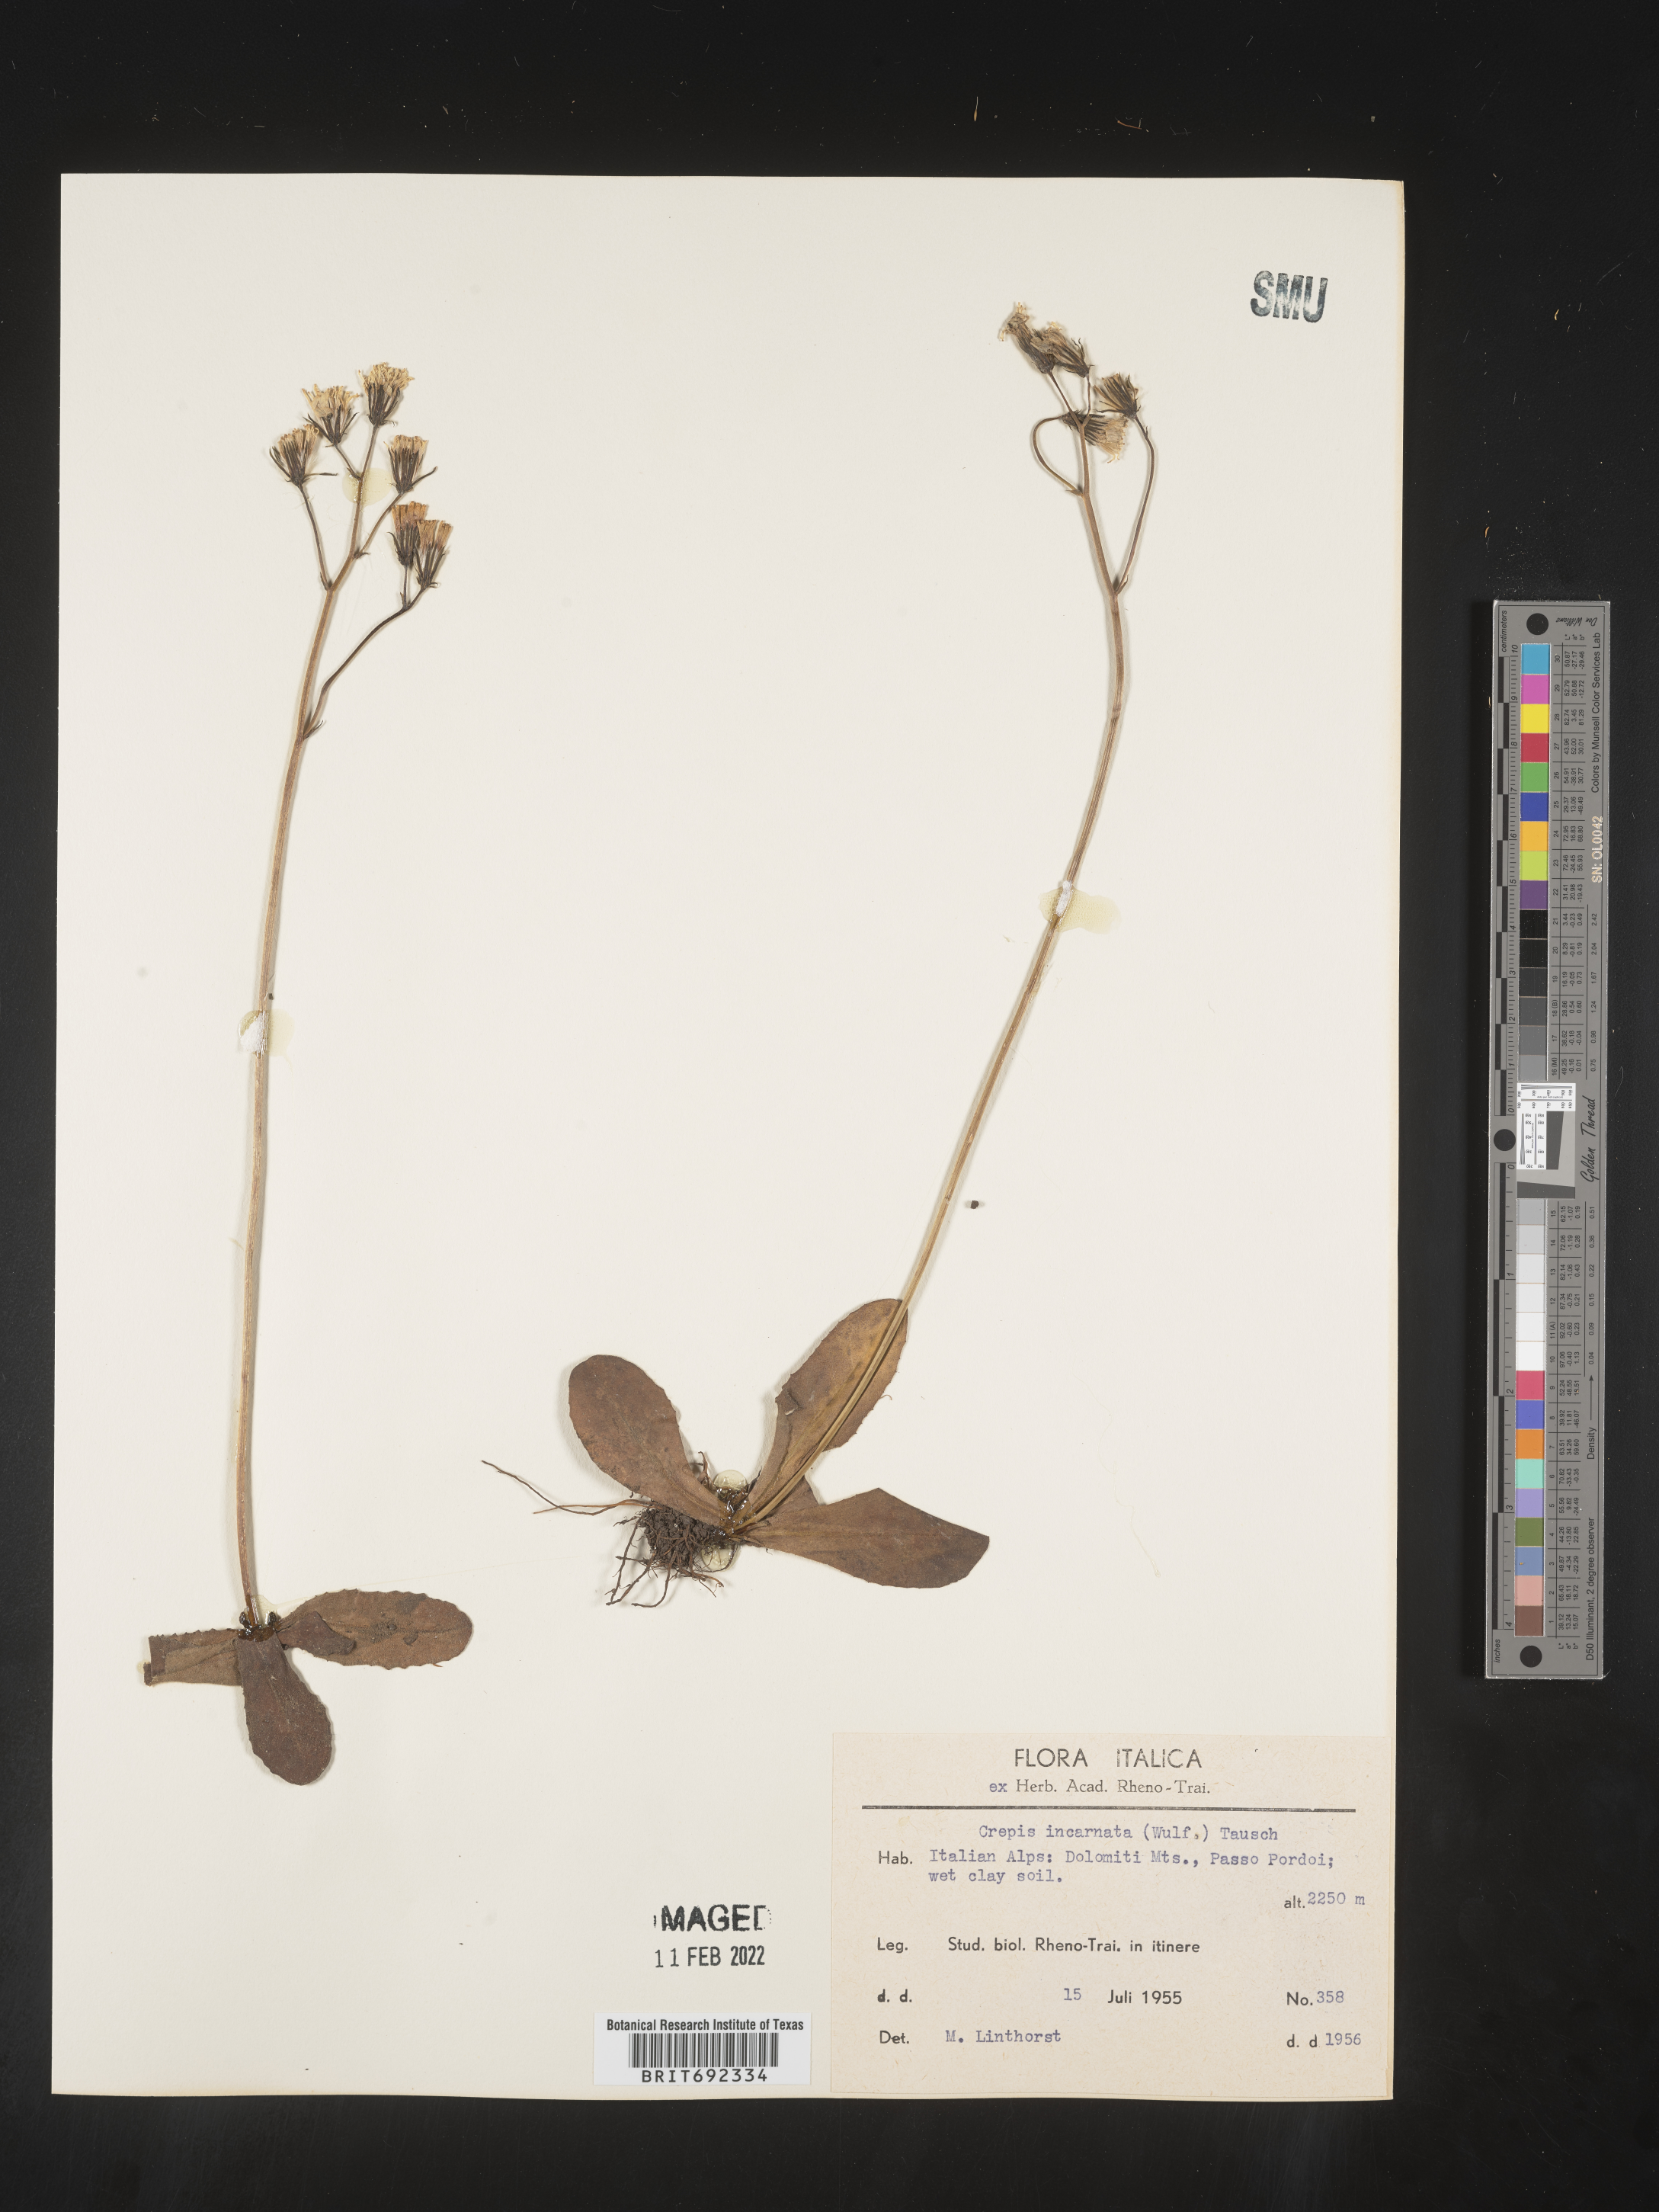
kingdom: Plantae
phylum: Tracheophyta
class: Magnoliopsida
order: Asterales
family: Asteraceae
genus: Crepis
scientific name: Crepis
